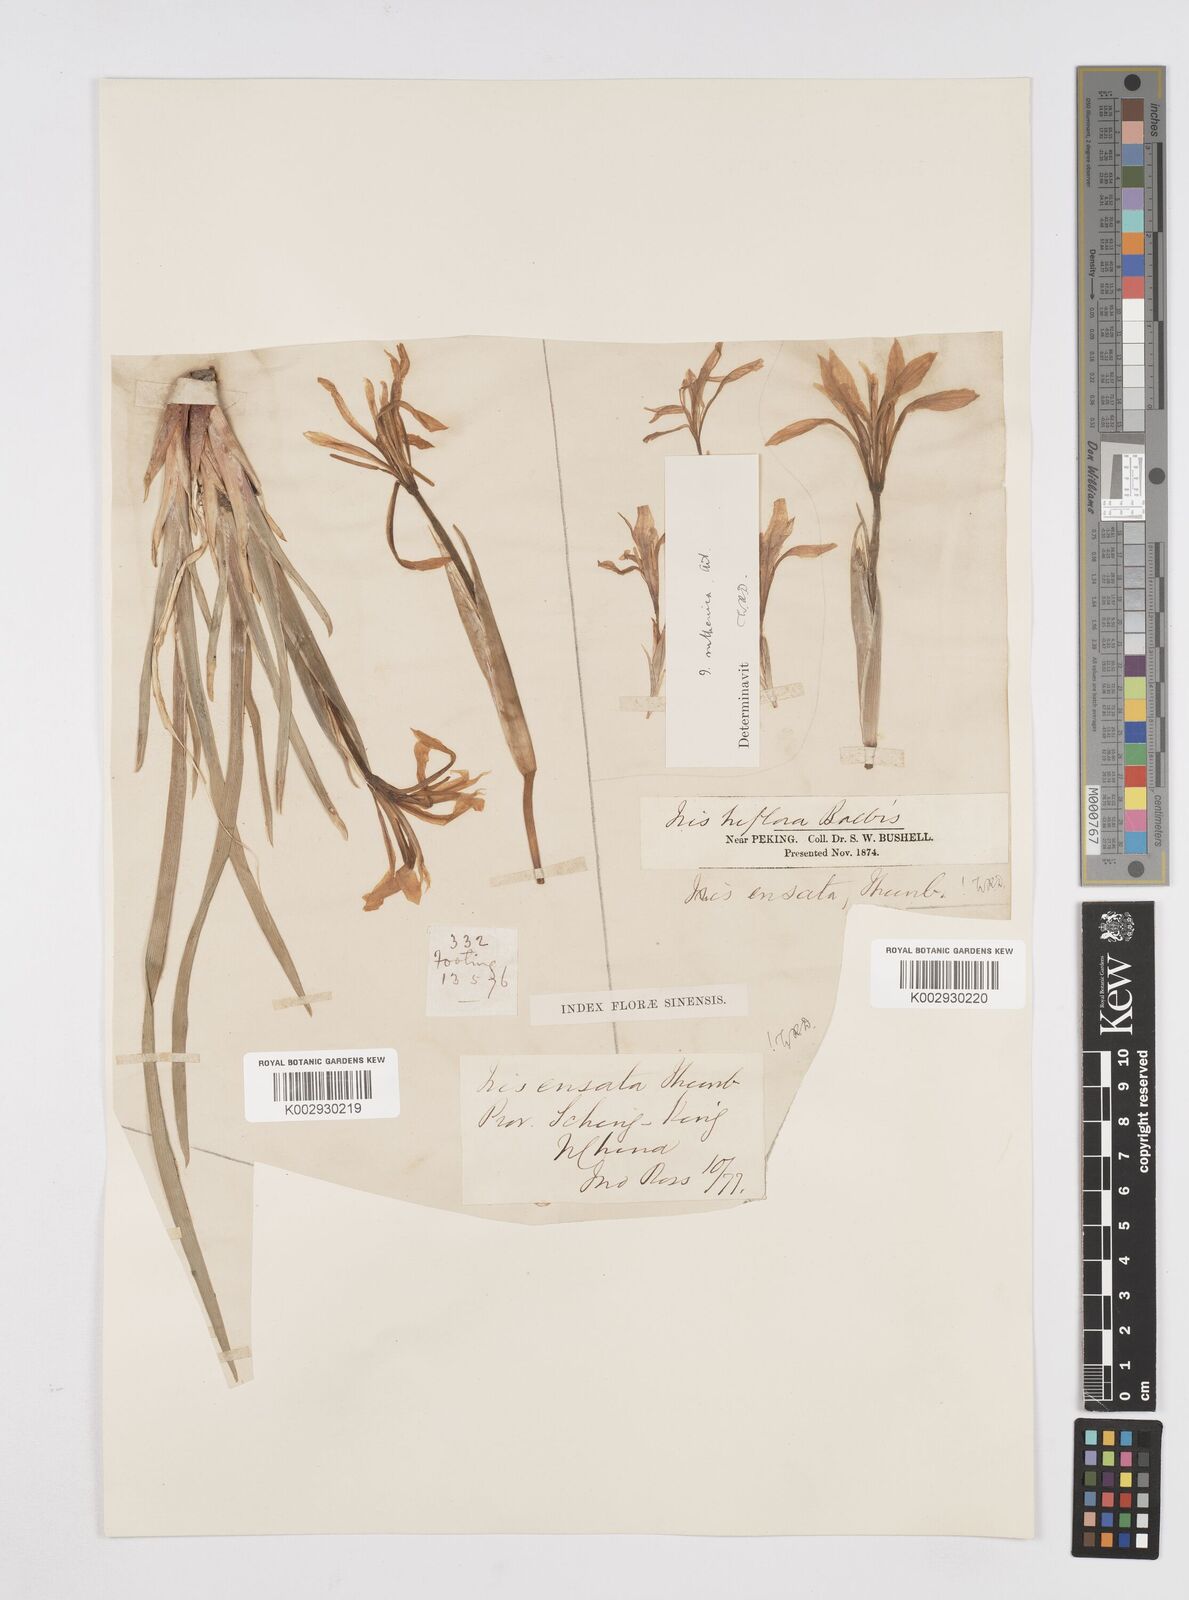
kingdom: Plantae
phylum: Tracheophyta
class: Liliopsida
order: Asparagales
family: Iridaceae
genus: Iris
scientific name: Iris lactea
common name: White-flower chinese iris
